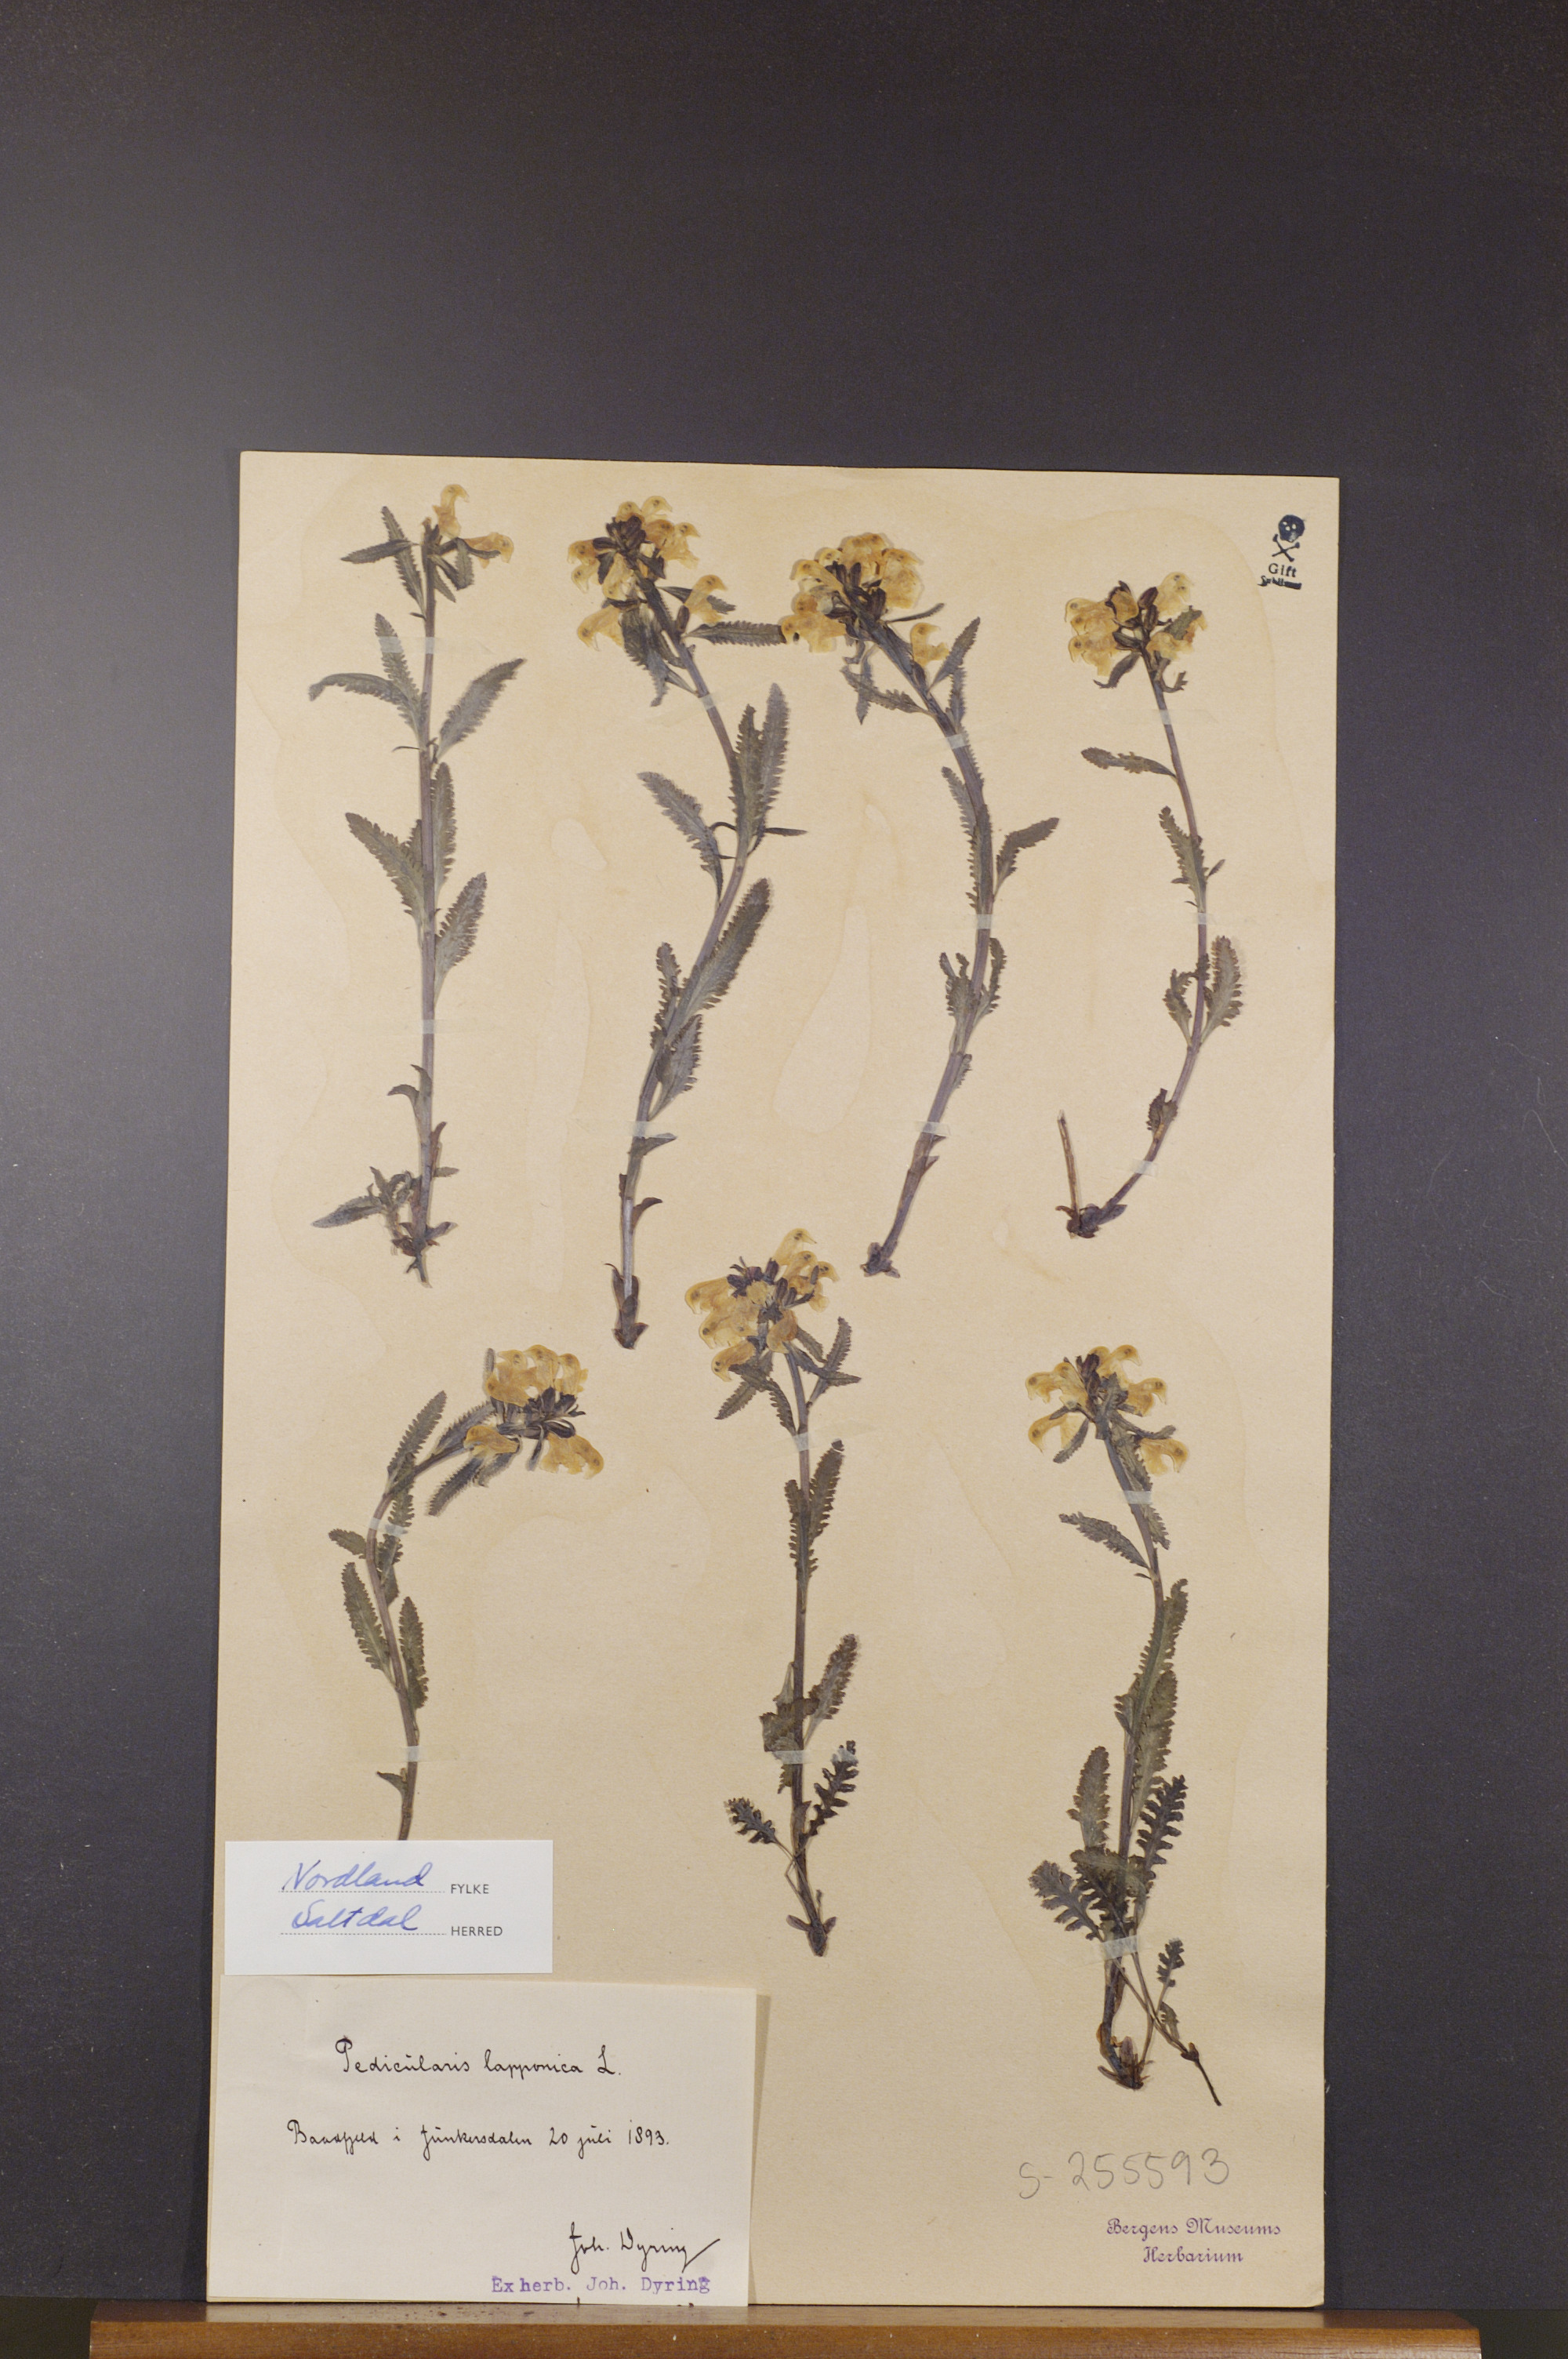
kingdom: Plantae
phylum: Tracheophyta
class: Magnoliopsida
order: Lamiales
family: Orobanchaceae
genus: Pedicularis
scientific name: Pedicularis lapponica
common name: Lapland lousewort
